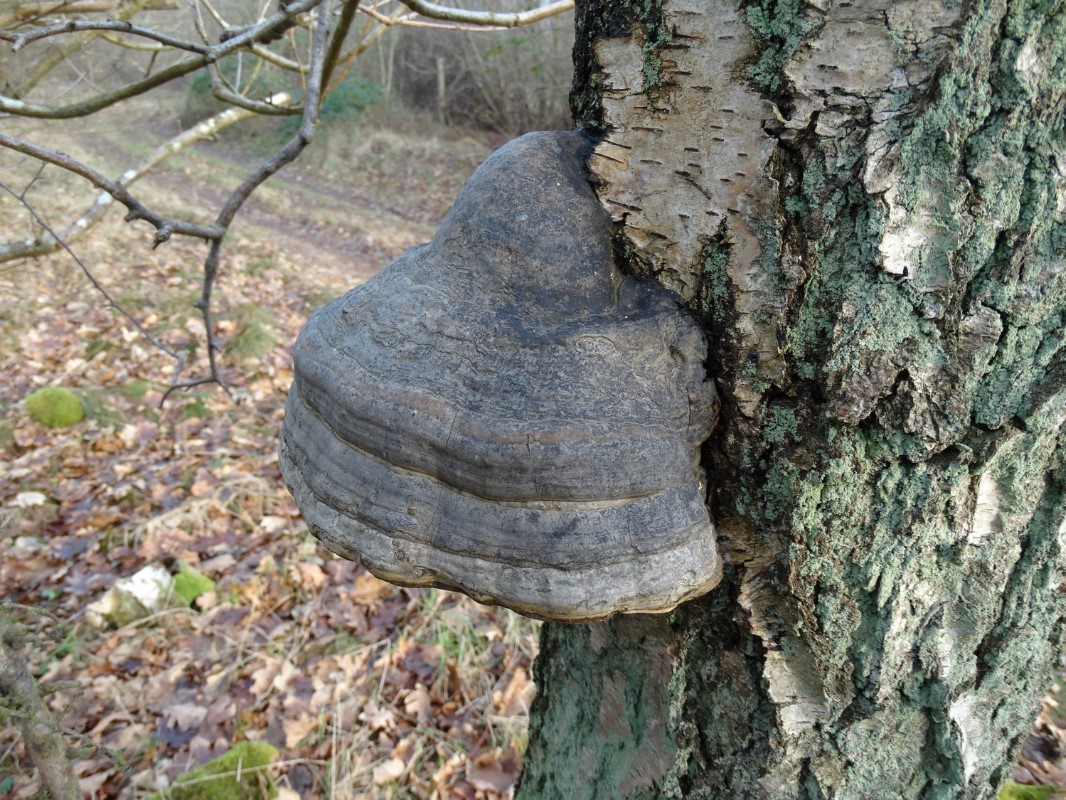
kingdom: Fungi
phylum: Basidiomycota
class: Agaricomycetes
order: Polyporales
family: Polyporaceae
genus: Fomes
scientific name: Fomes fomentarius
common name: tøndersvamp
